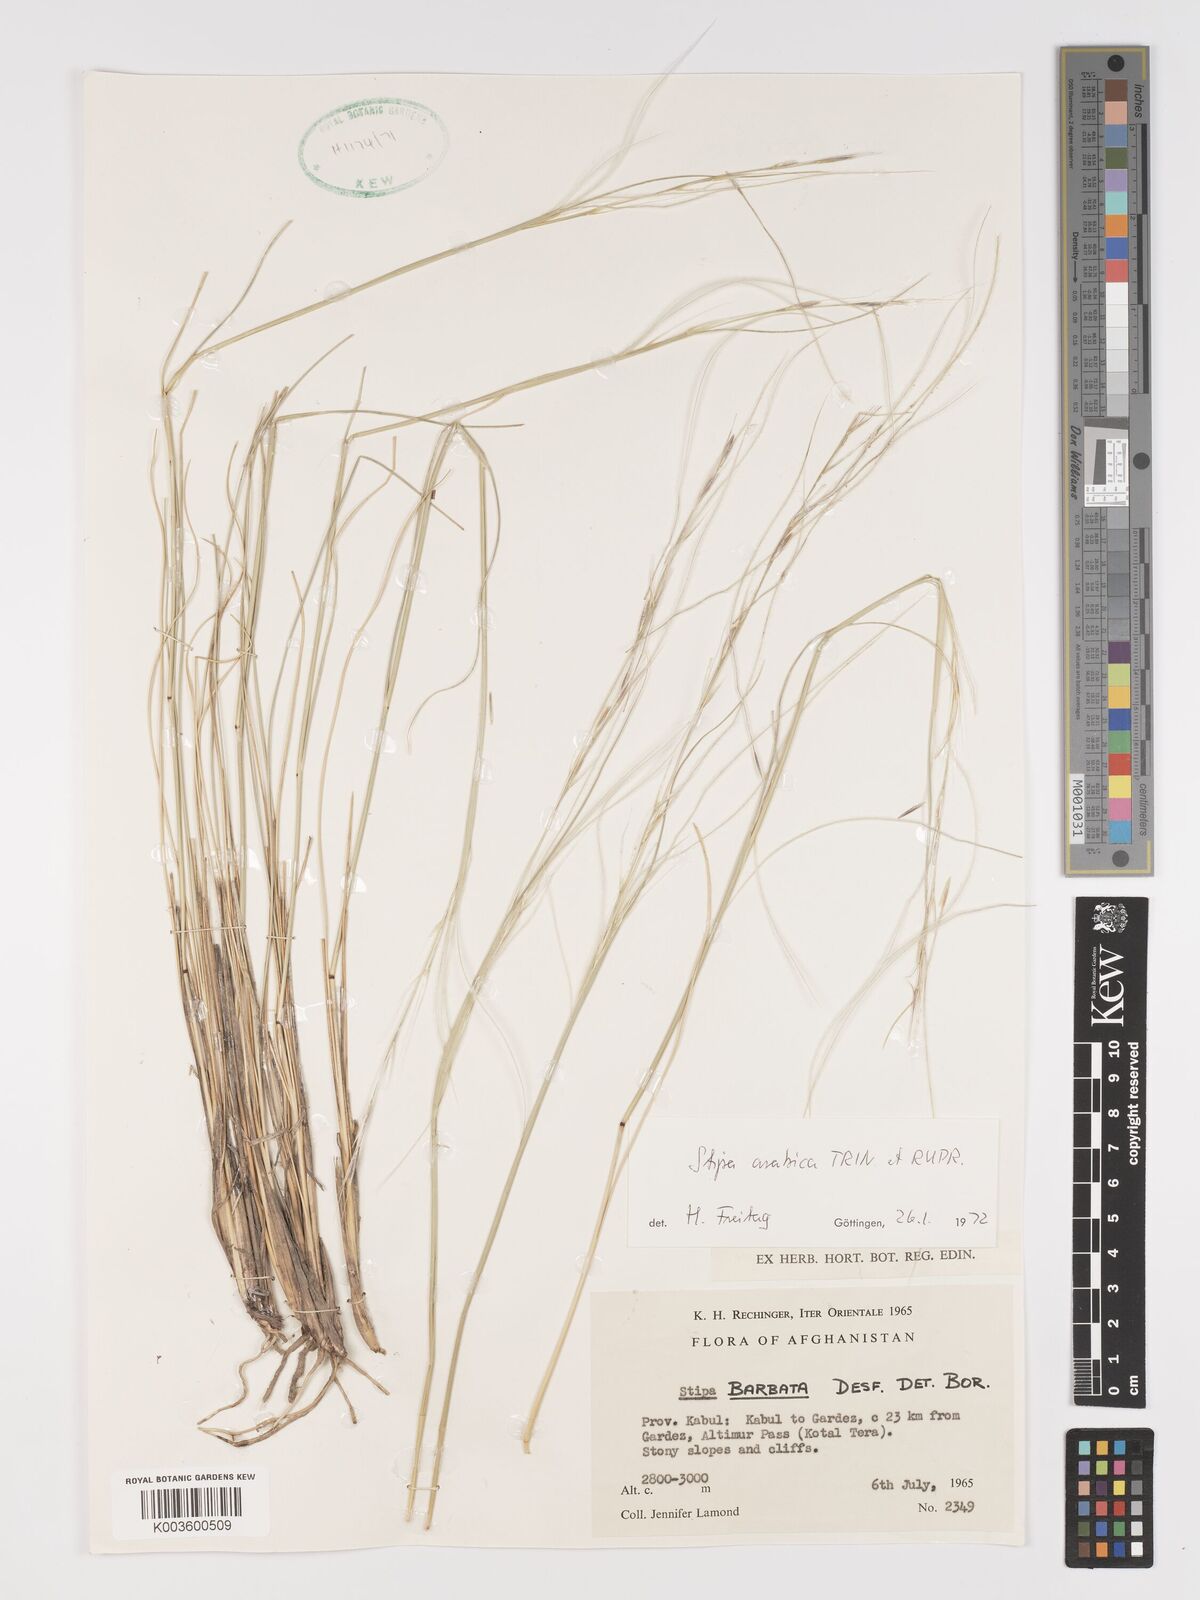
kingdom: Plantae
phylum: Tracheophyta
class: Liliopsida
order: Poales
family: Poaceae
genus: Stipa
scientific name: Stipa arabica
